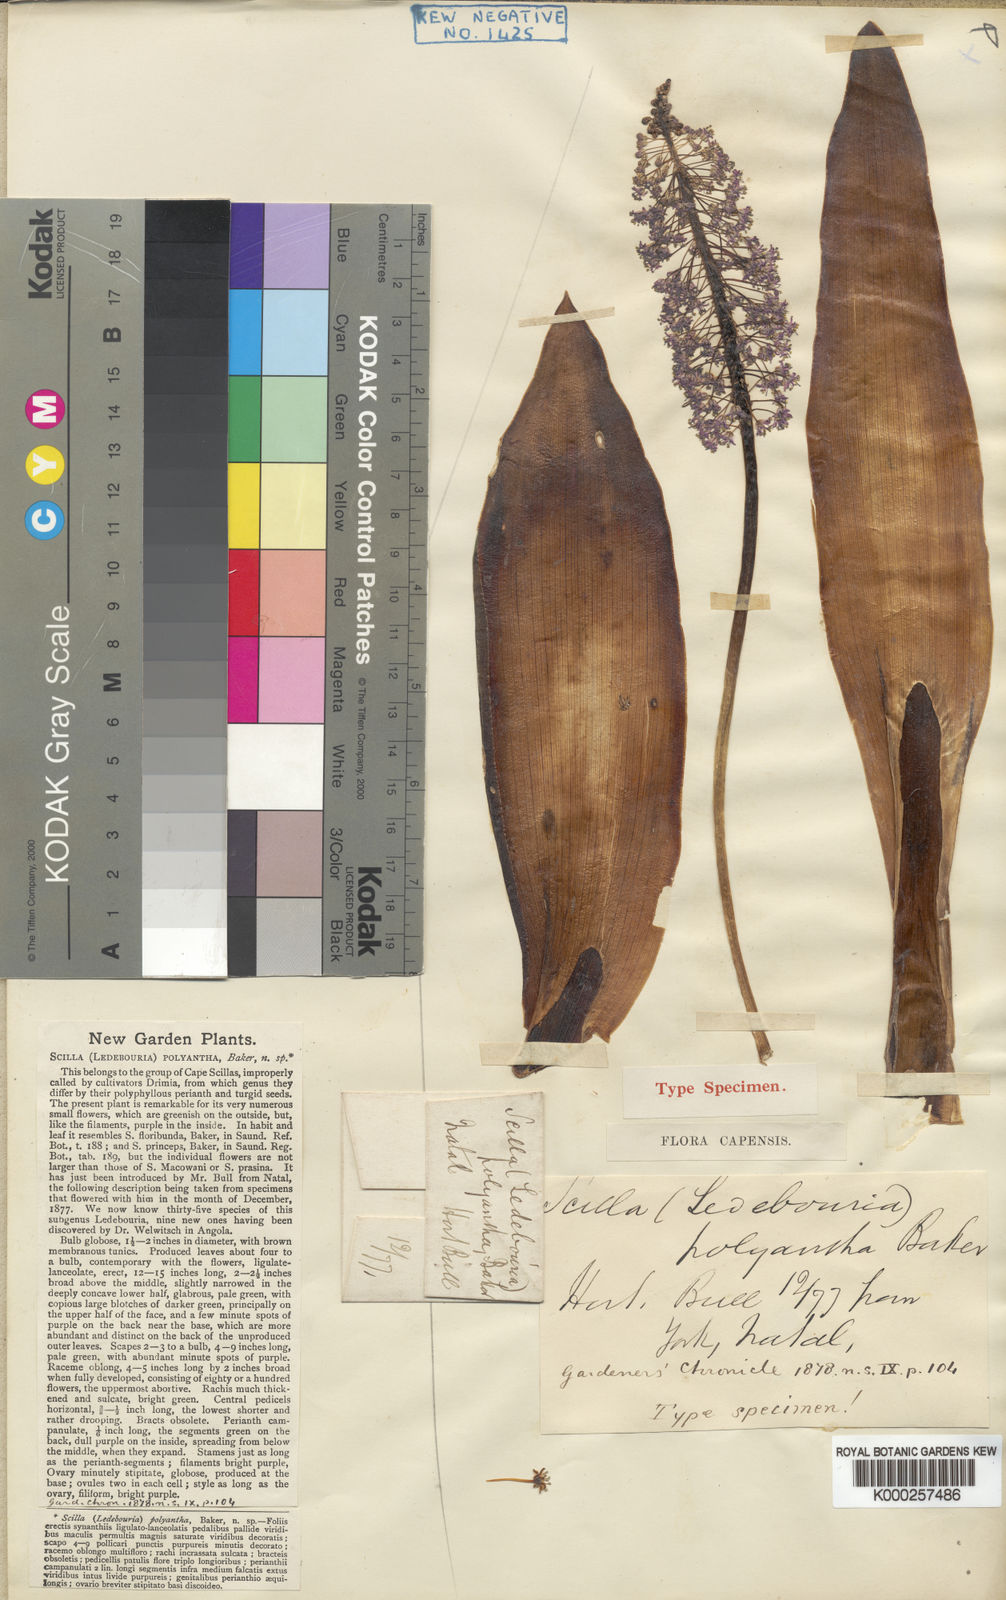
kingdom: Plantae
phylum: Tracheophyta
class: Liliopsida
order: Asparagales
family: Asparagaceae
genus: Ledebouria
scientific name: Ledebouria floribunda
